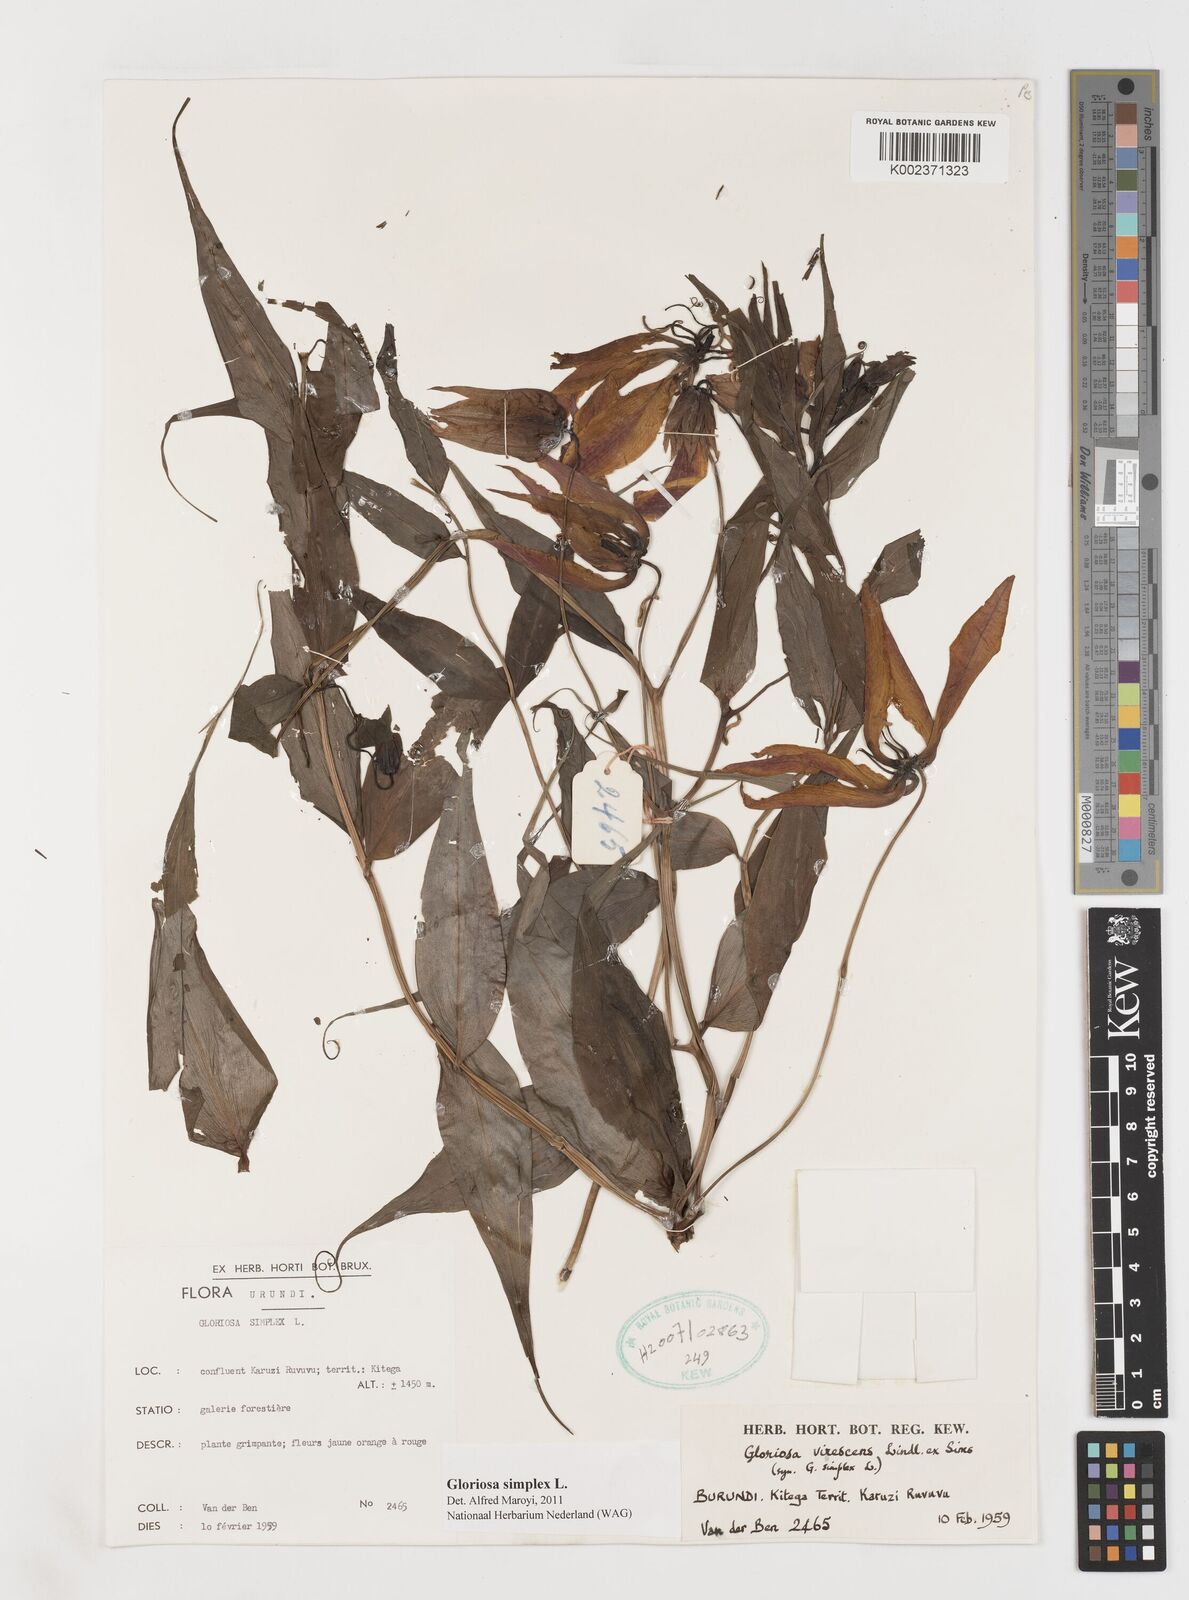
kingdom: Plantae
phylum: Tracheophyta
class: Liliopsida
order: Liliales
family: Colchicaceae
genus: Gloriosa
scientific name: Gloriosa simplex
